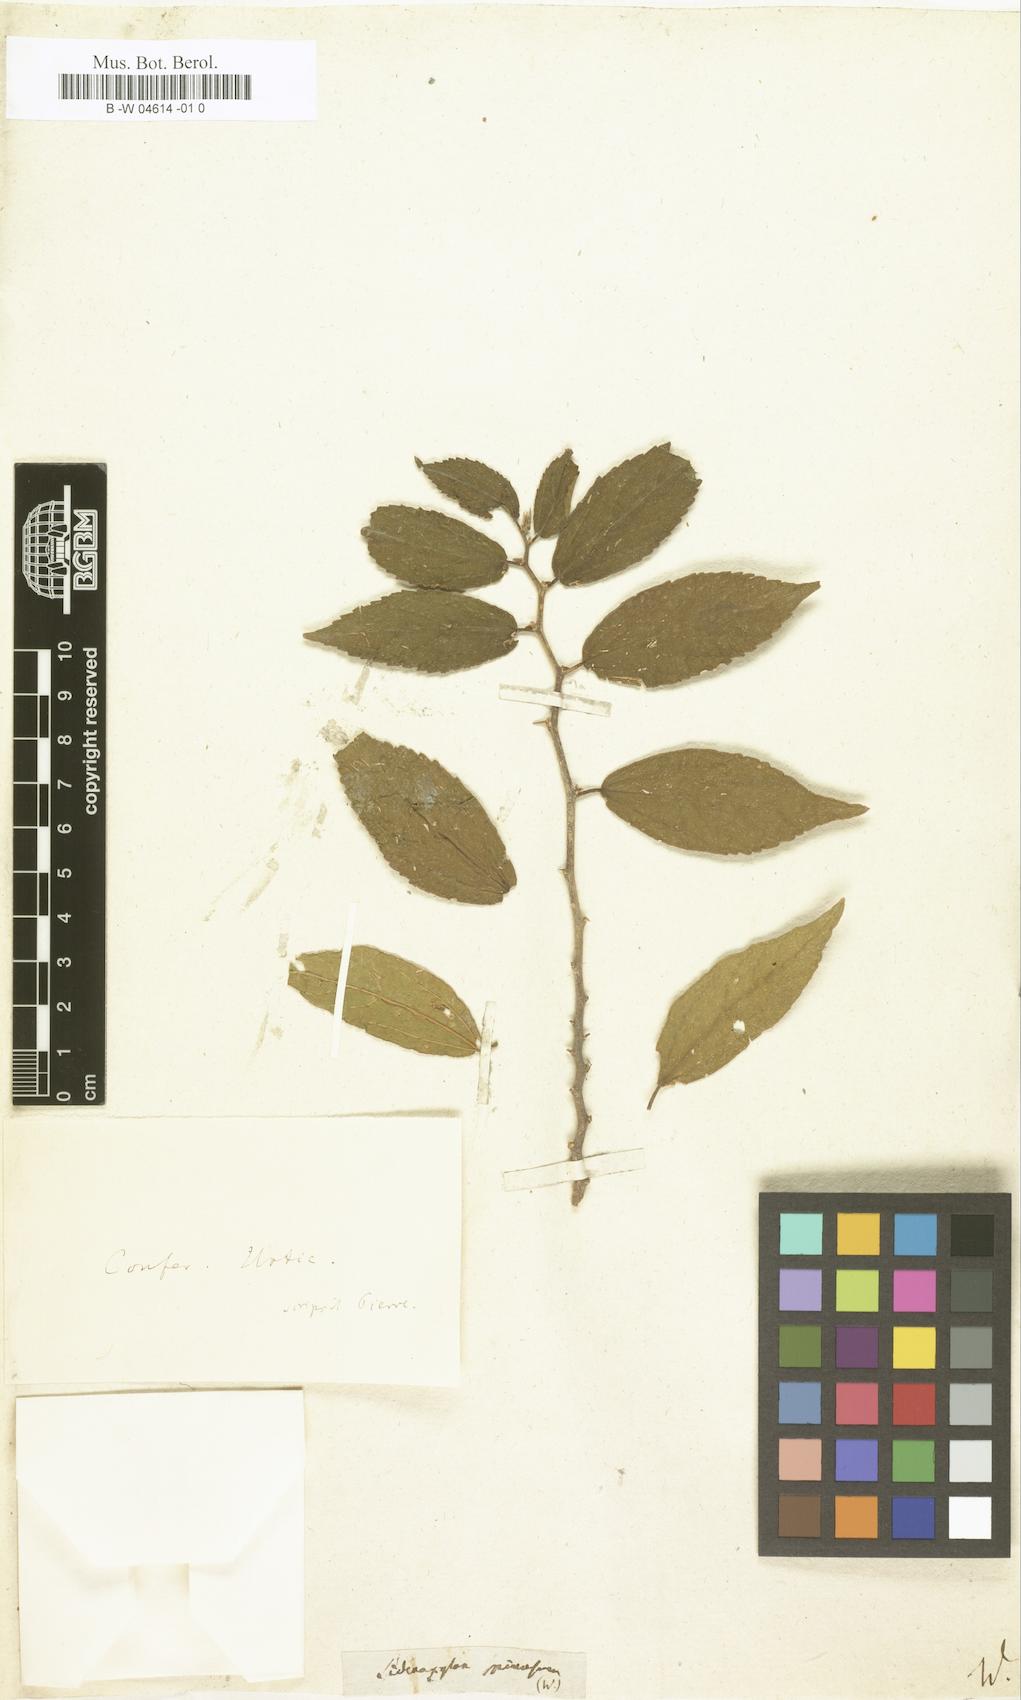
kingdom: Plantae
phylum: Tracheophyta
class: Magnoliopsida
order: Ericales
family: Sapotaceae
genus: Sideroxylon
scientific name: Sideroxylon spinosum
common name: Argan
